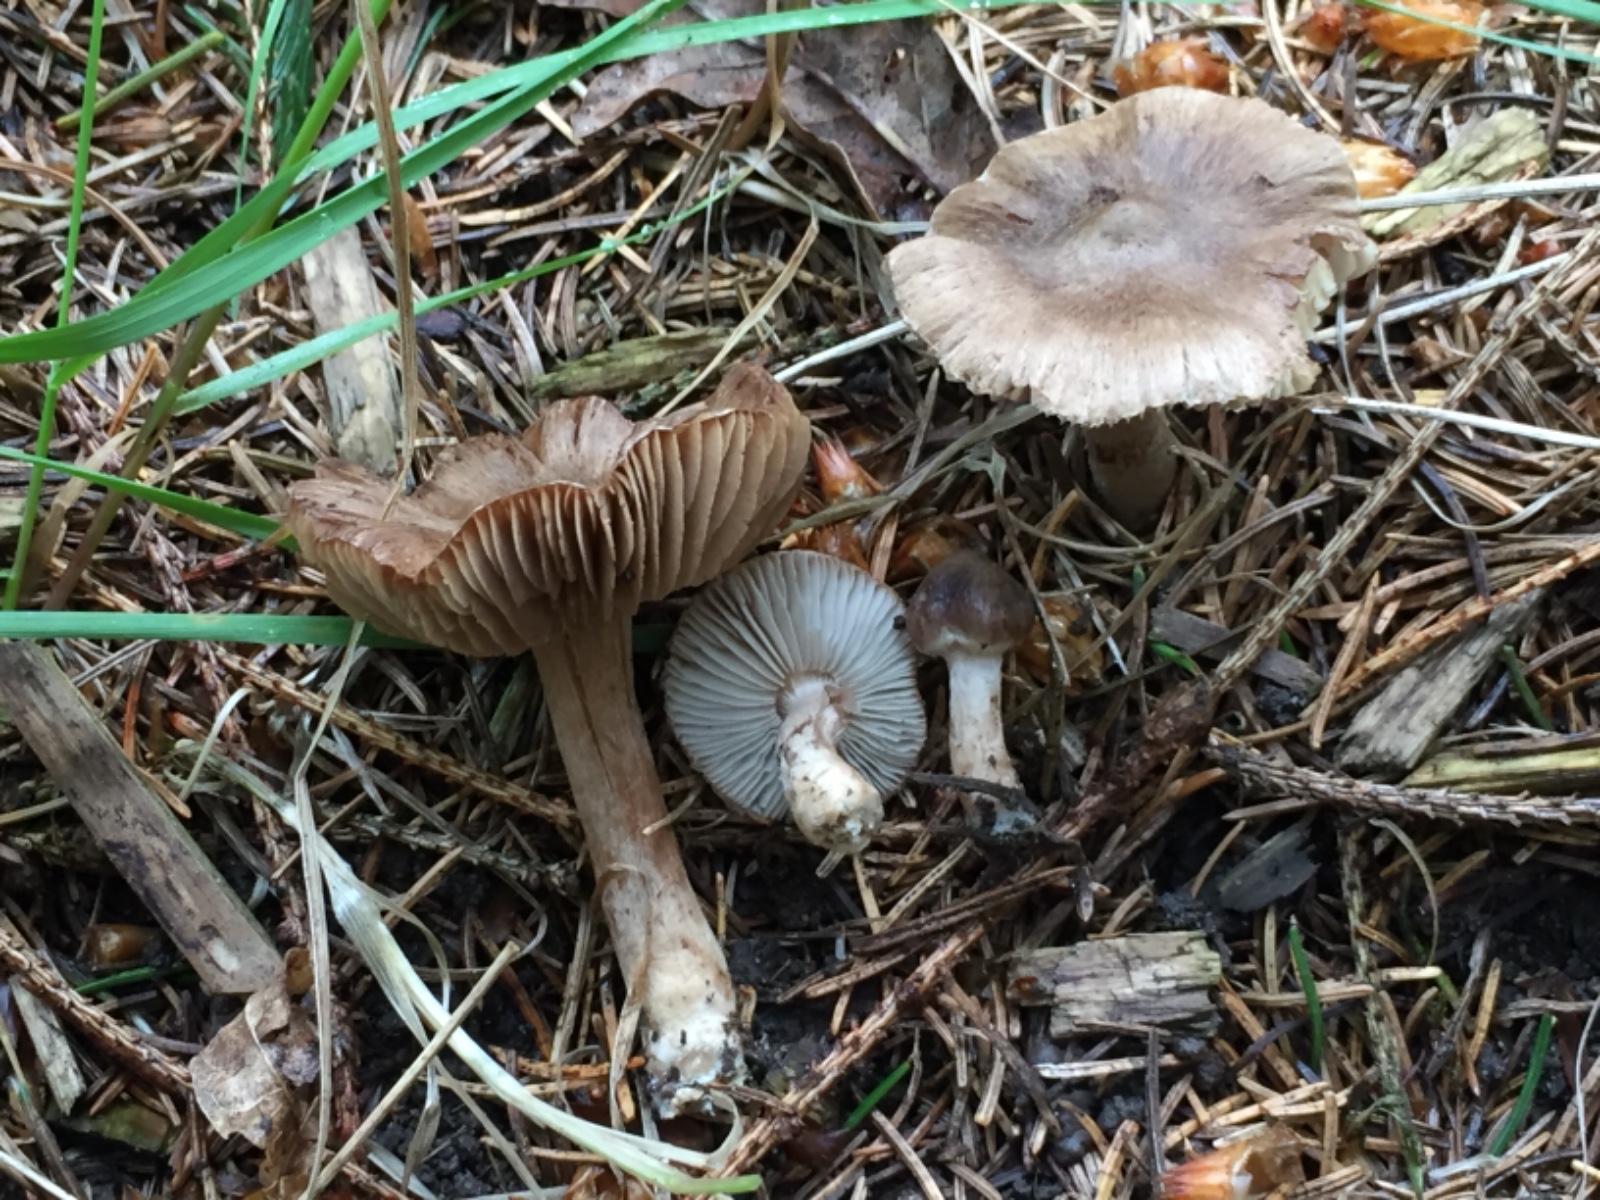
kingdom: Fungi
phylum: Basidiomycota
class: Agaricomycetes
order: Agaricales
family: Inocybaceae
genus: Inocybe
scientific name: Inocybe giacomi
